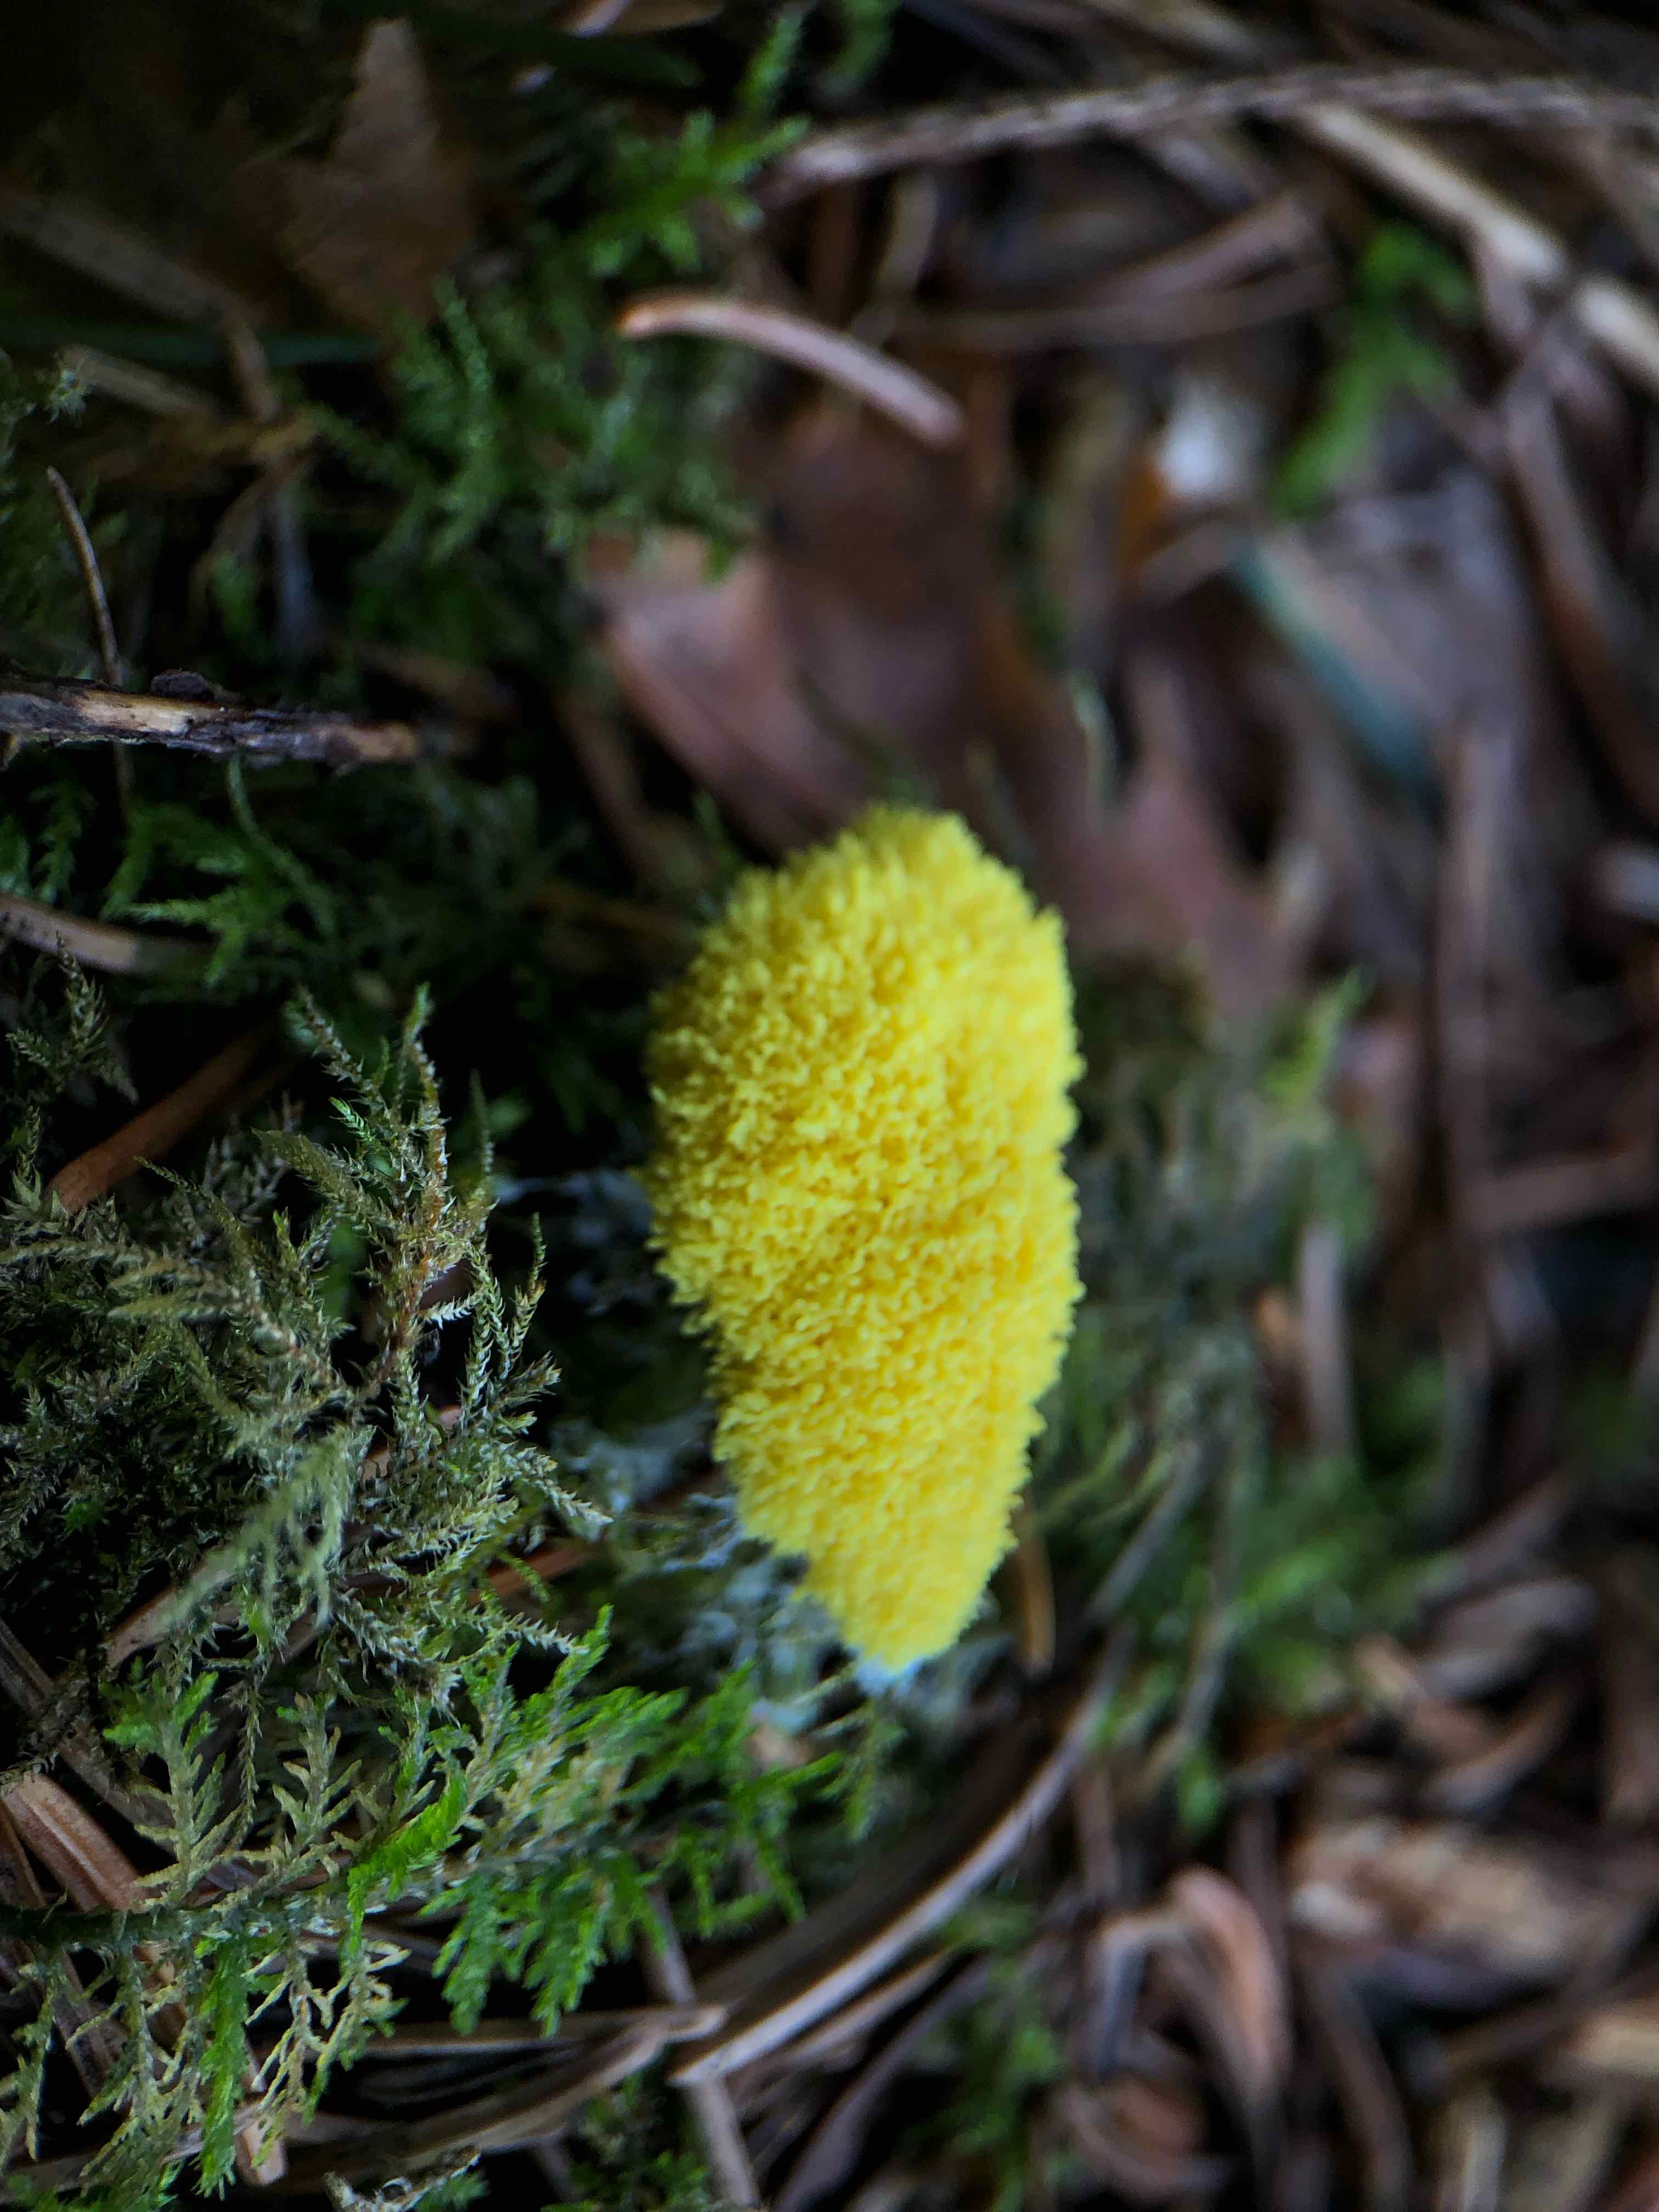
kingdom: Protozoa
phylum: Mycetozoa
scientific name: Mycetozoa
